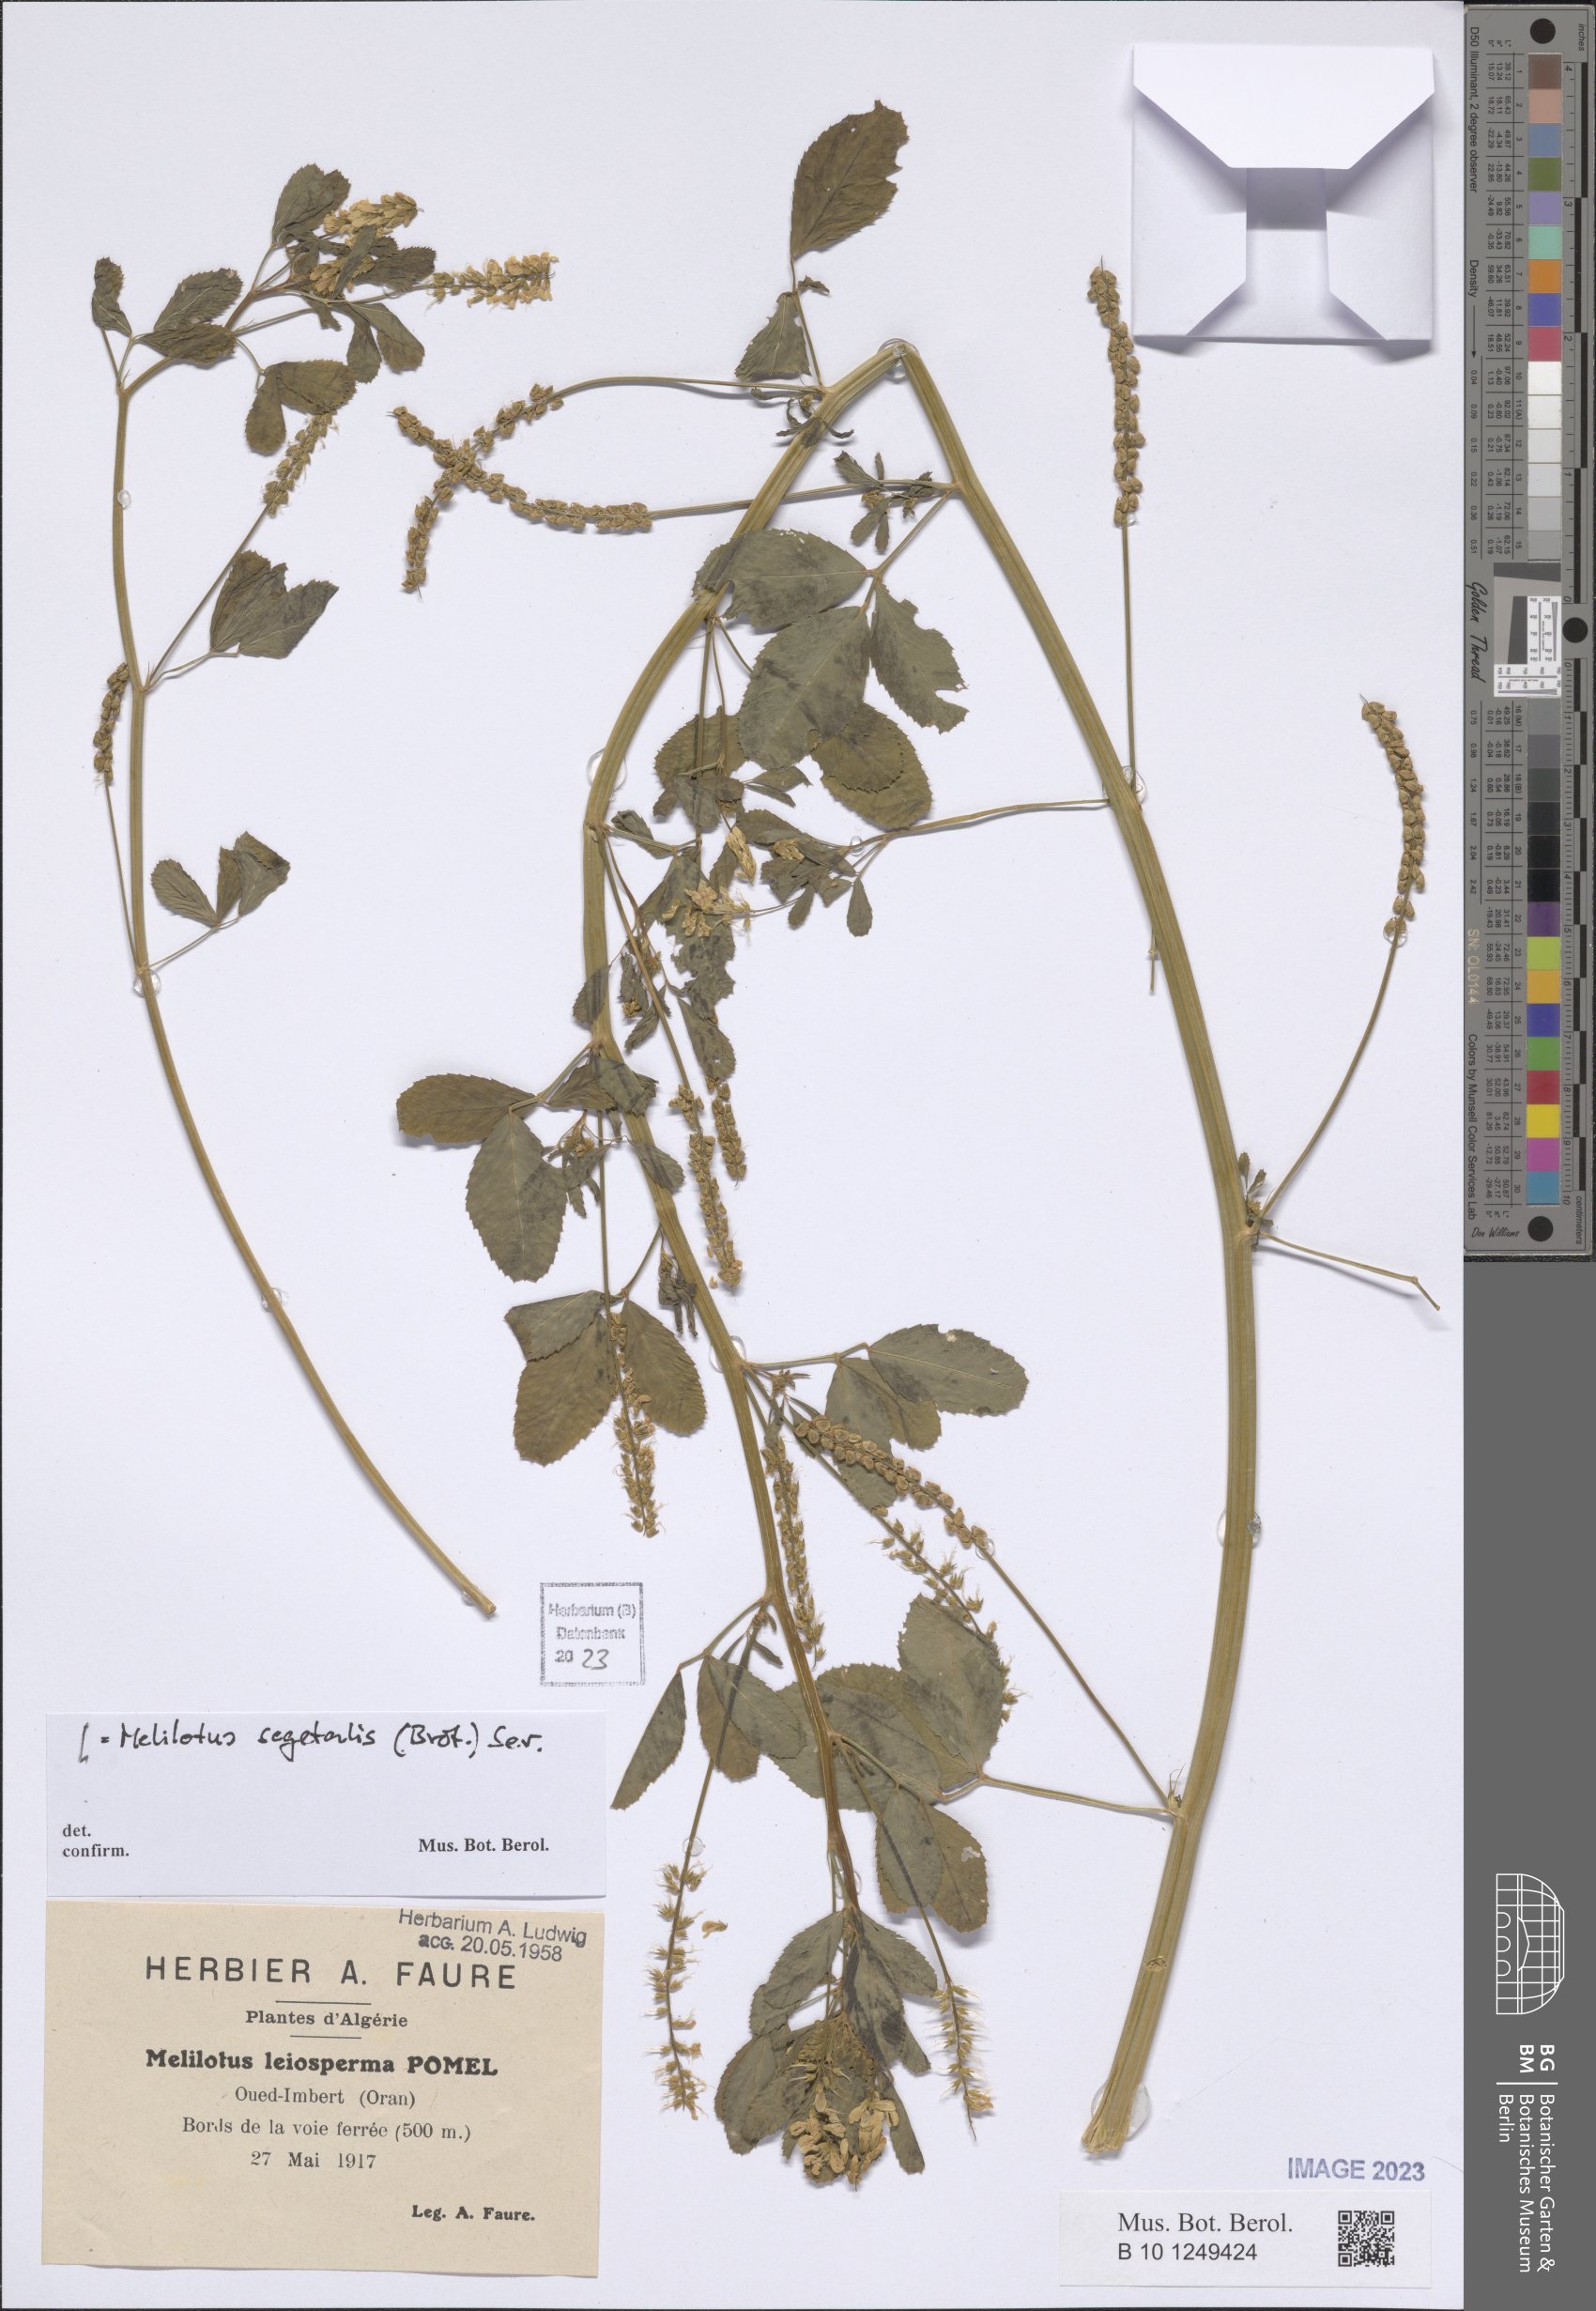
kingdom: Plantae
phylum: Tracheophyta
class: Magnoliopsida
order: Fabales
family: Fabaceae
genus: Melilotus
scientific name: Melilotus segetalis
